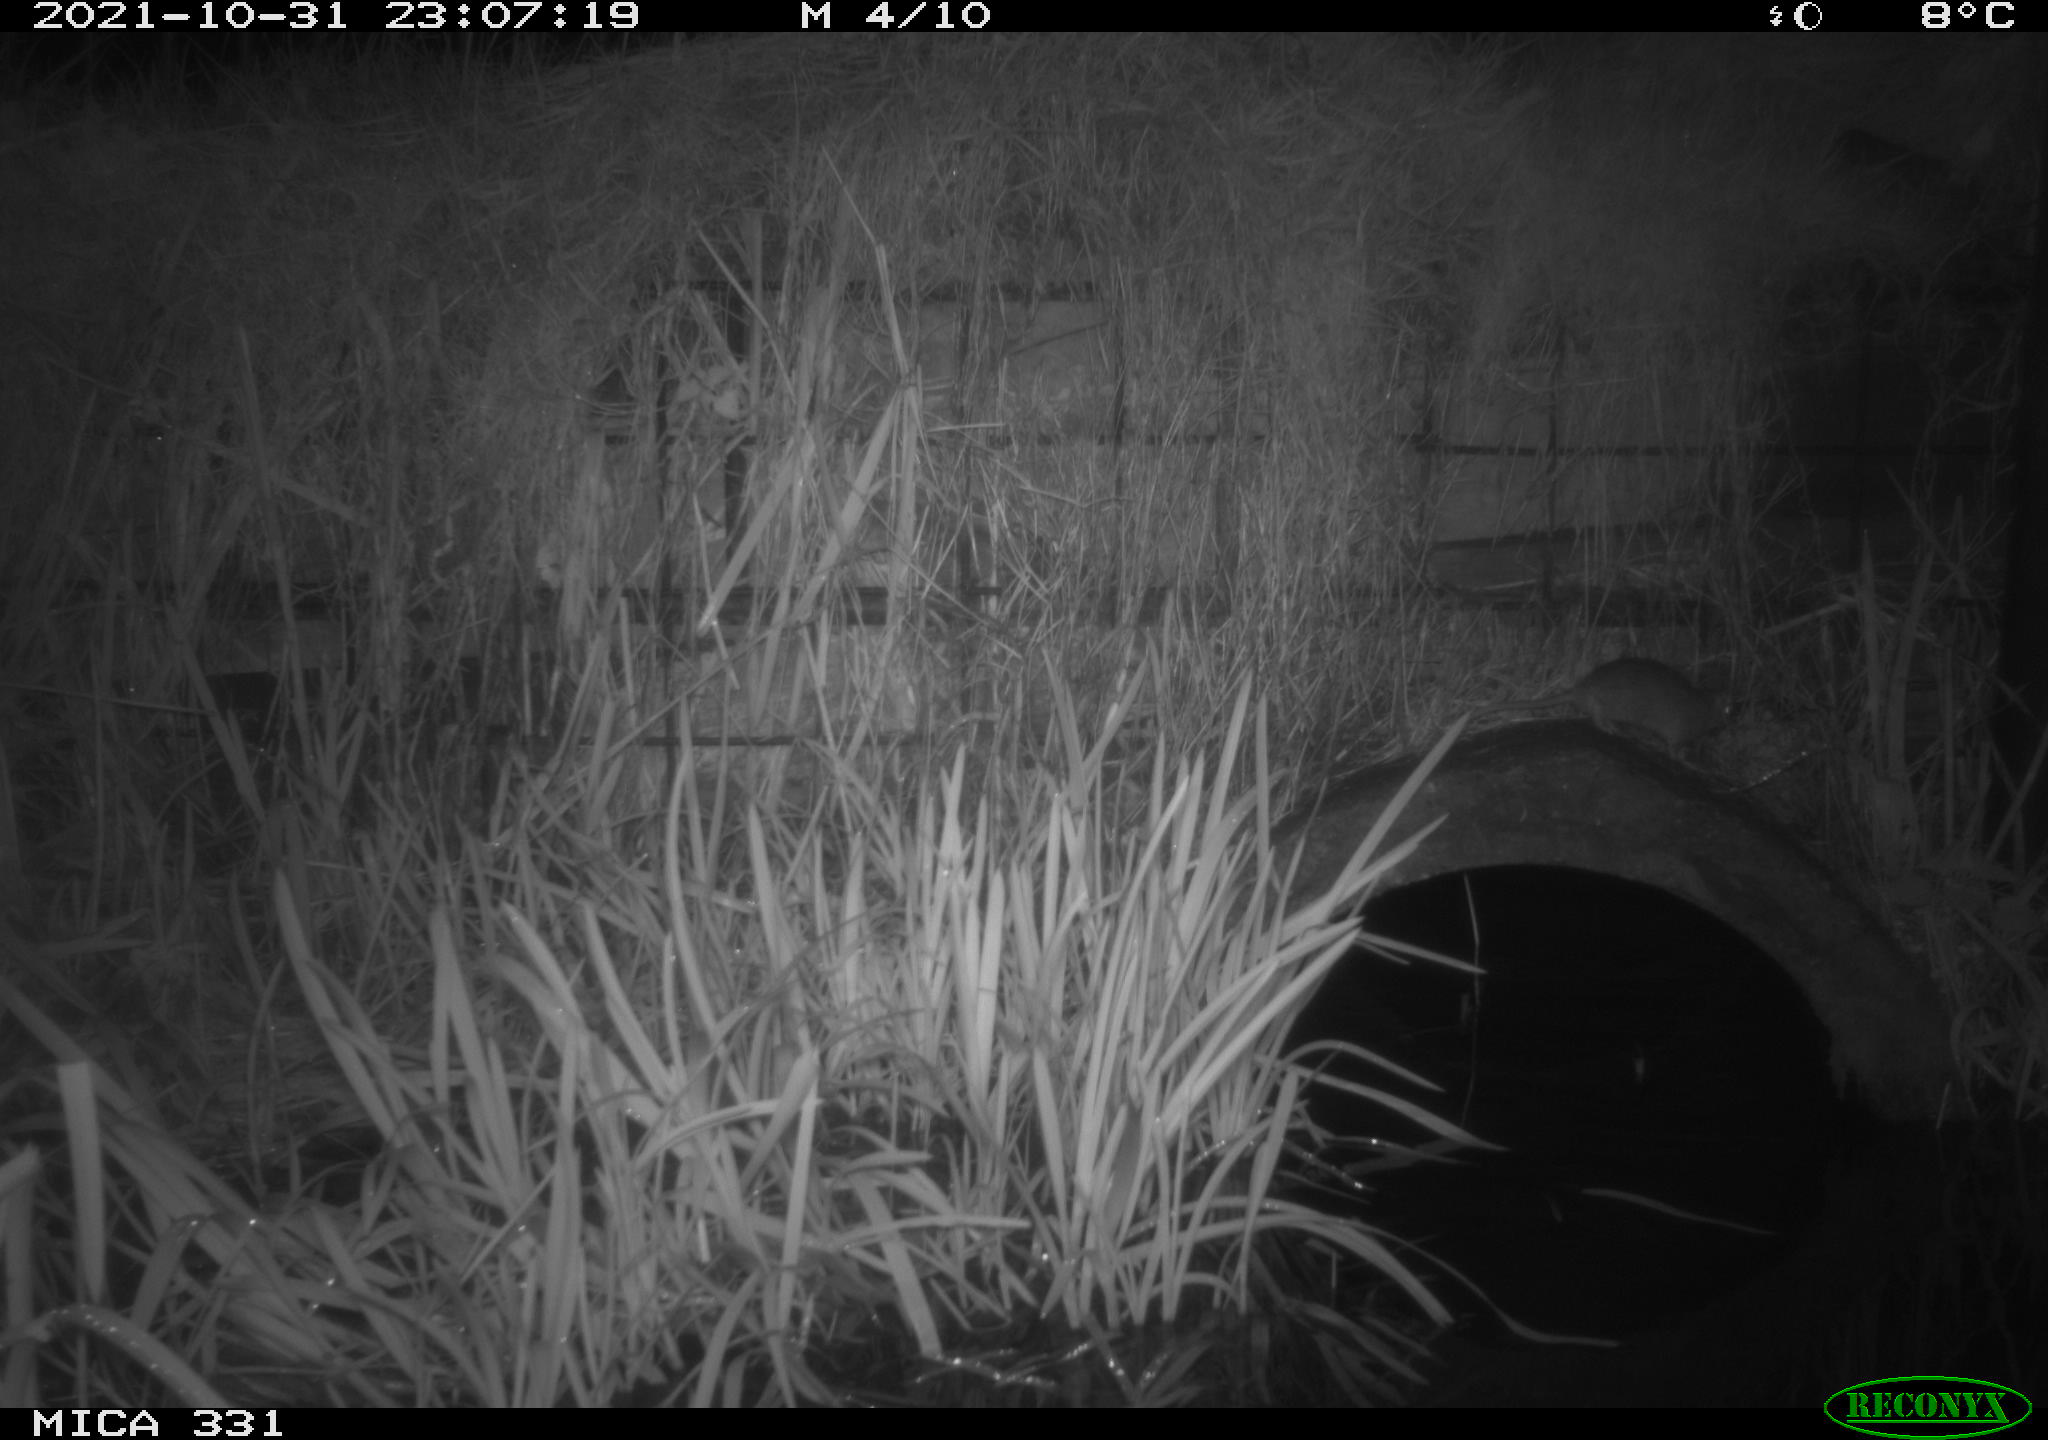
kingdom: Animalia
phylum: Chordata
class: Mammalia
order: Rodentia
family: Muridae
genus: Rattus
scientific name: Rattus norvegicus
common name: Brown rat
